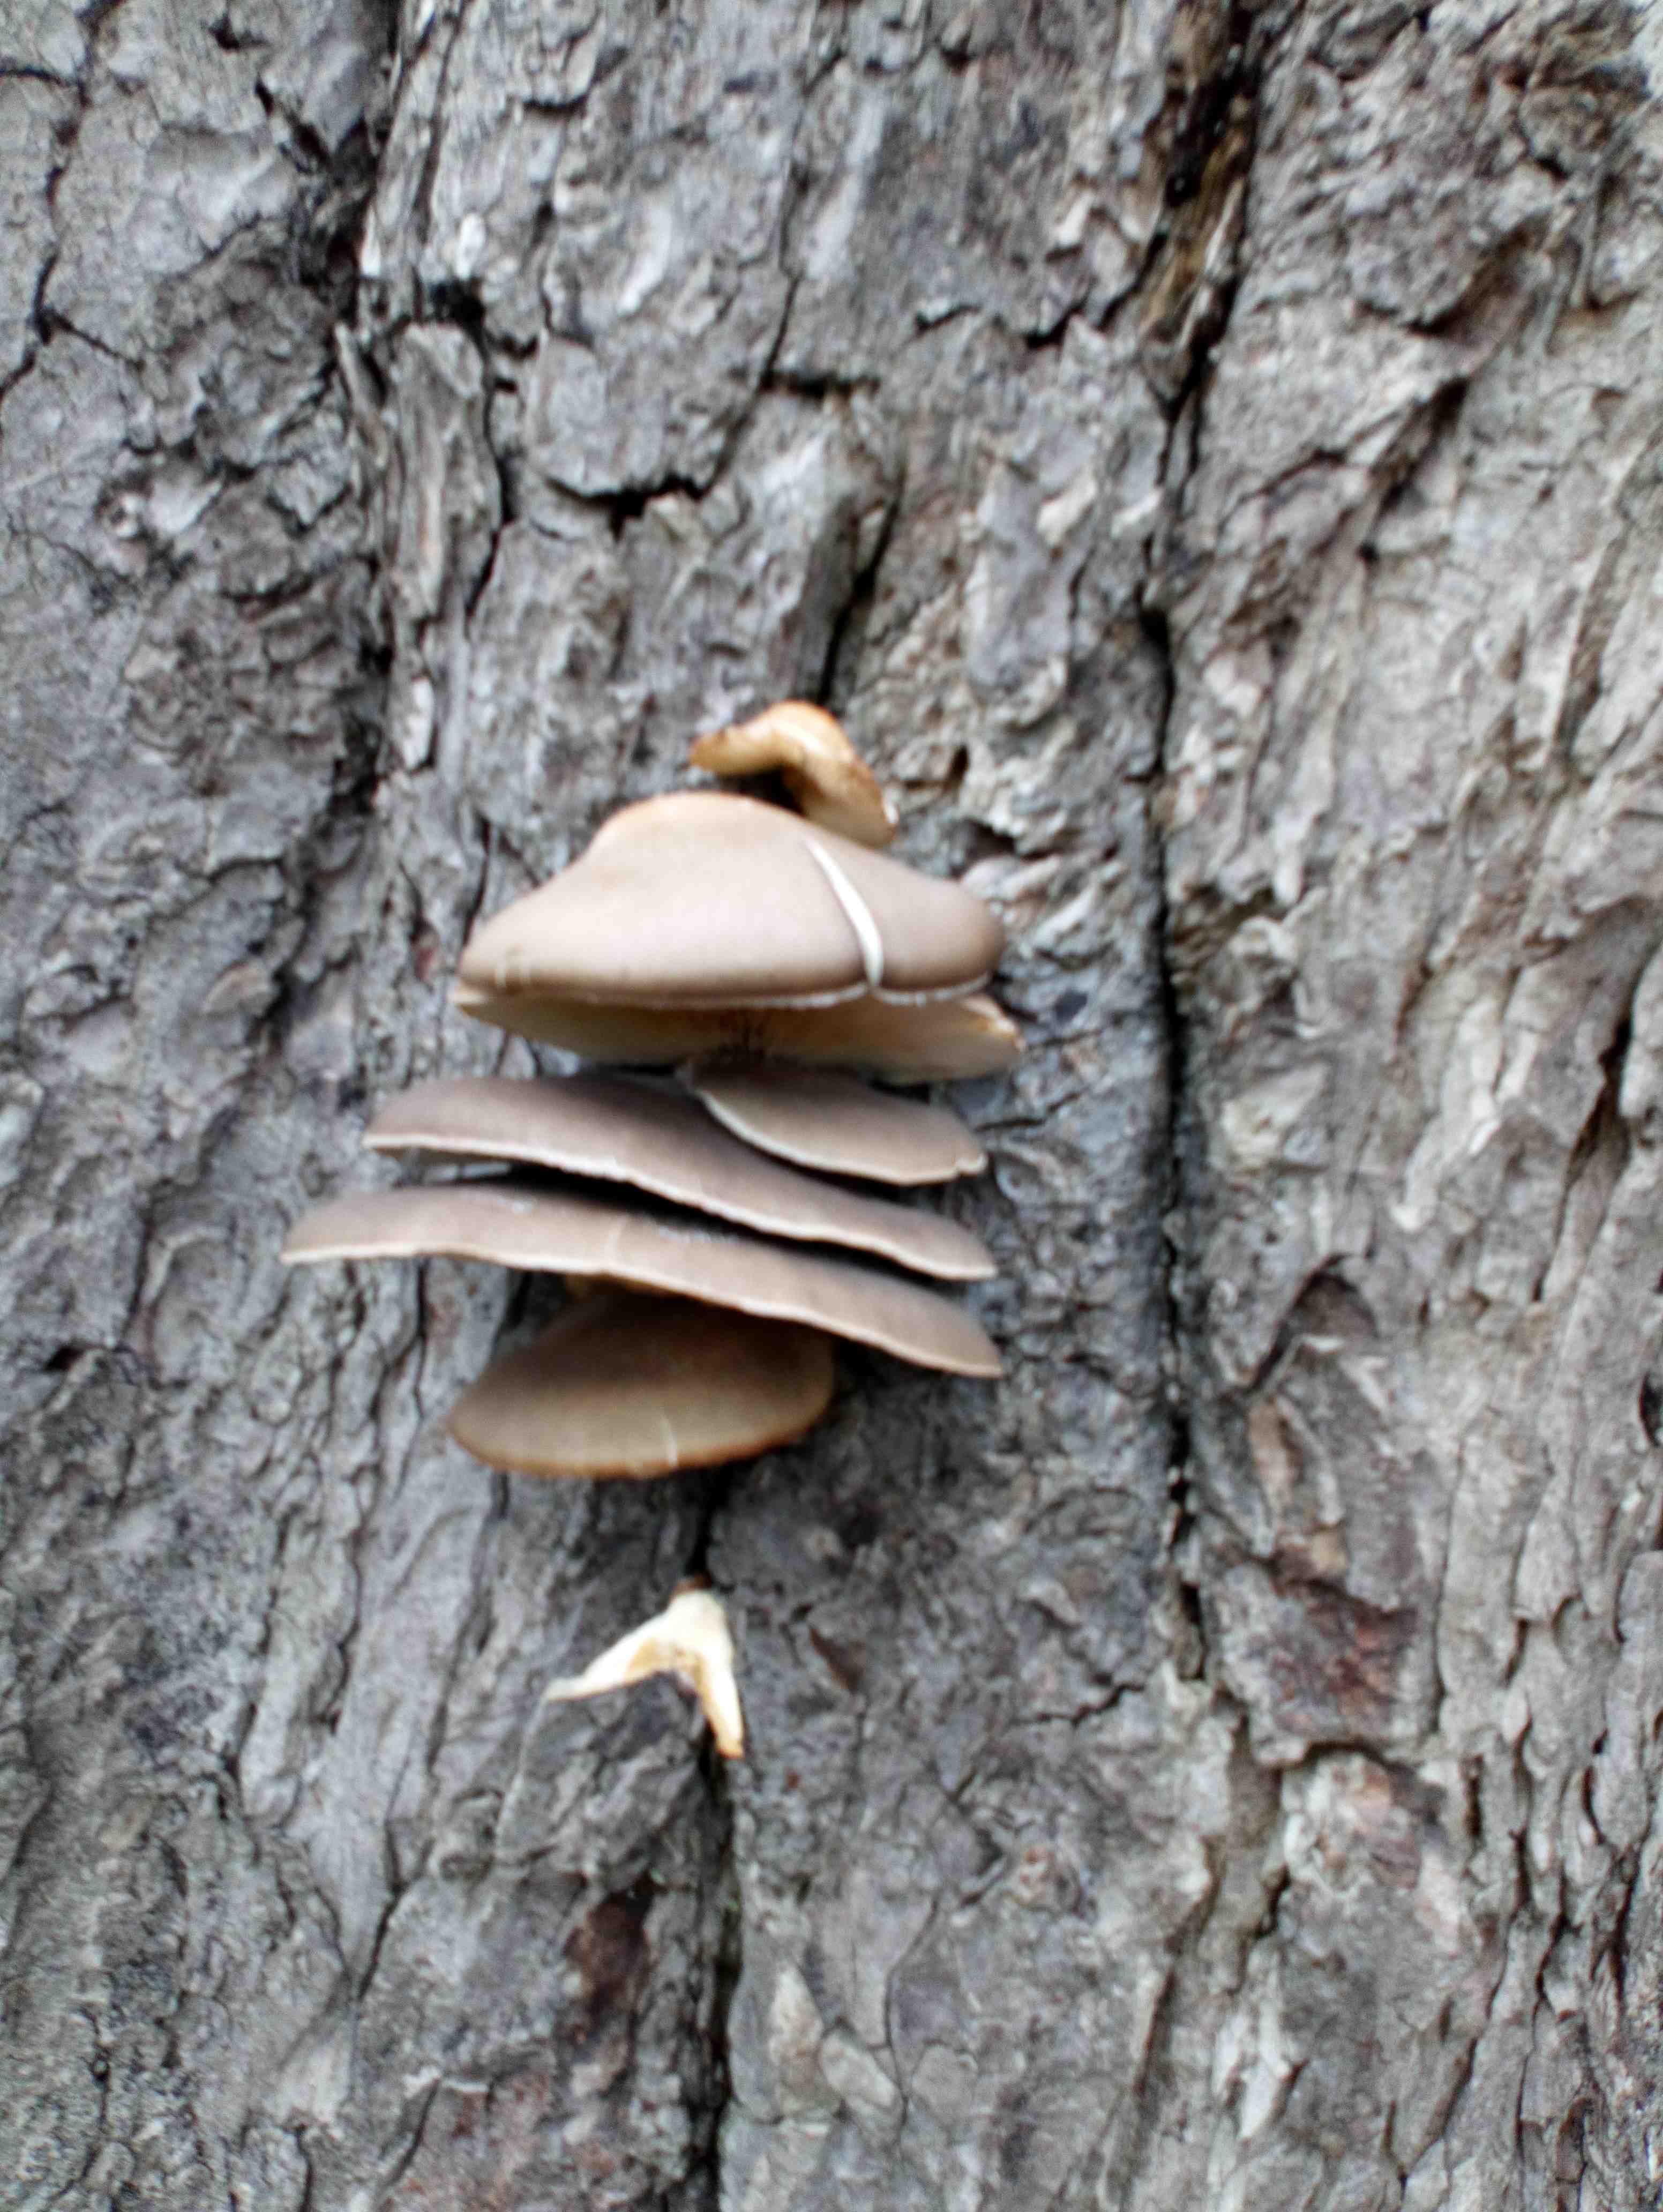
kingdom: Fungi
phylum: Basidiomycota
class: Agaricomycetes
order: Agaricales
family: Pleurotaceae
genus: Pleurotus
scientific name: Pleurotus ostreatus
